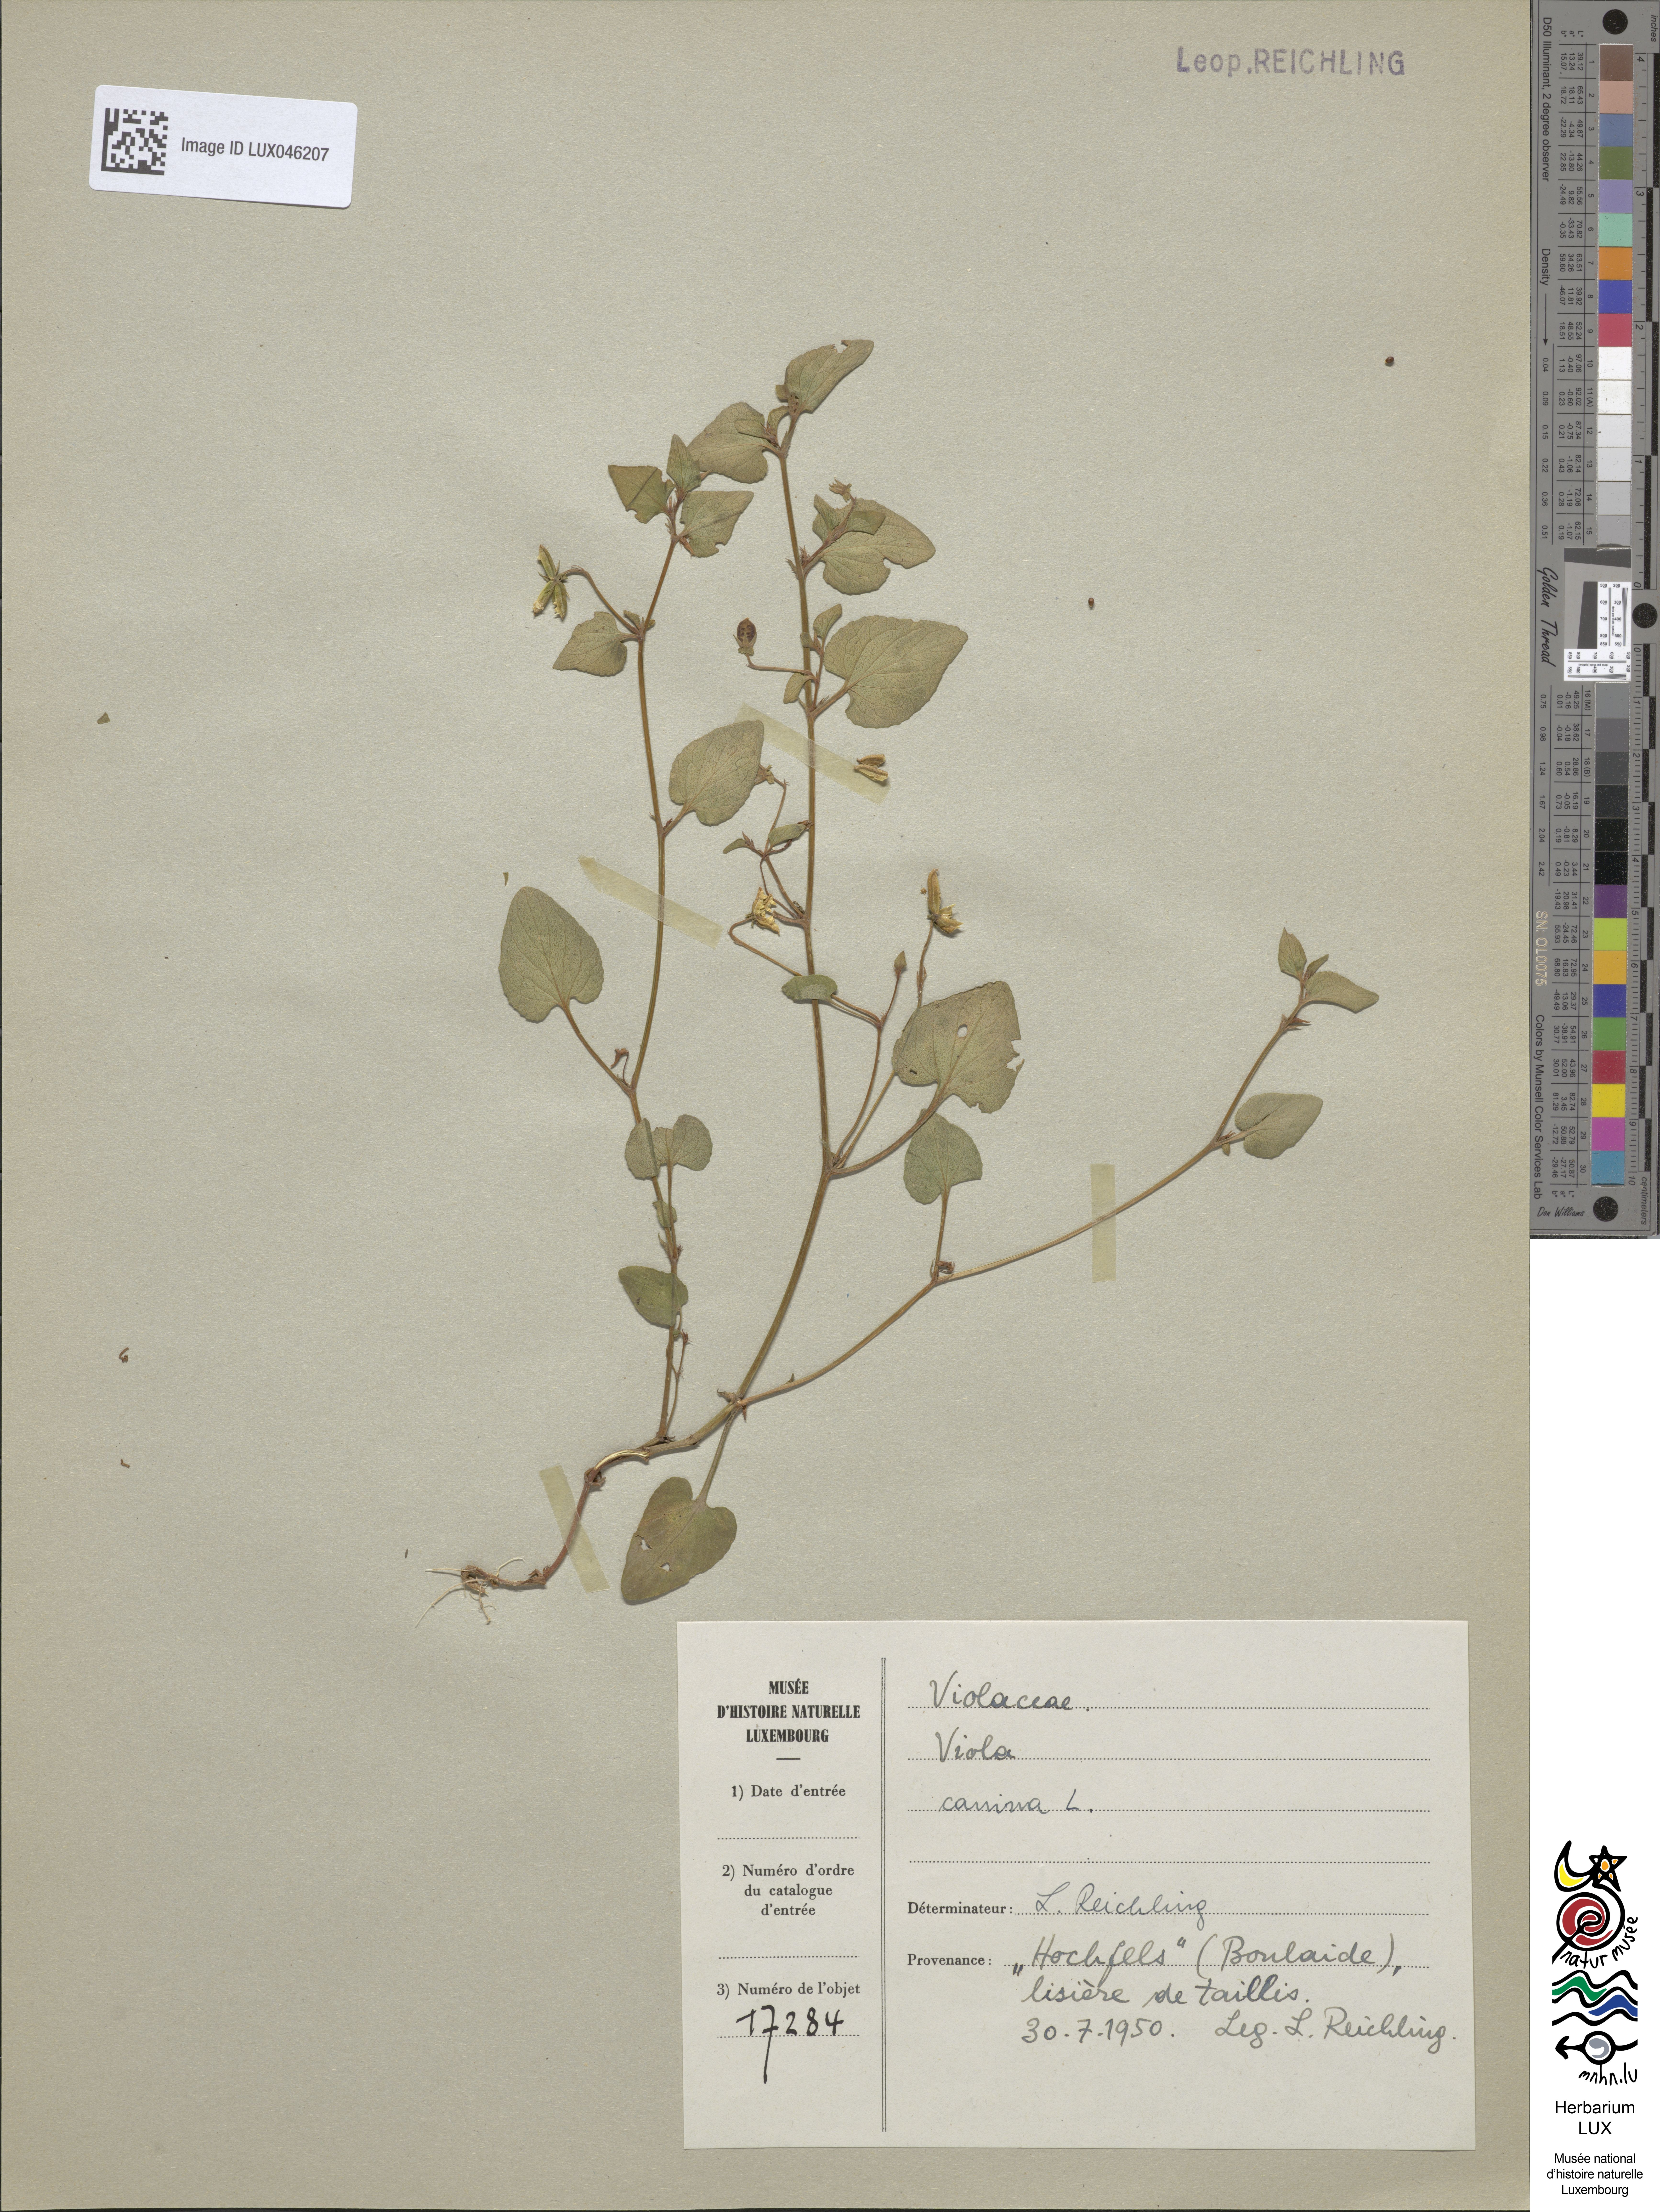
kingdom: Plantae
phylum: Tracheophyta
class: Magnoliopsida
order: Malpighiales
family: Violaceae
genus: Viola
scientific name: Viola canina
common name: Heath dog-violet
